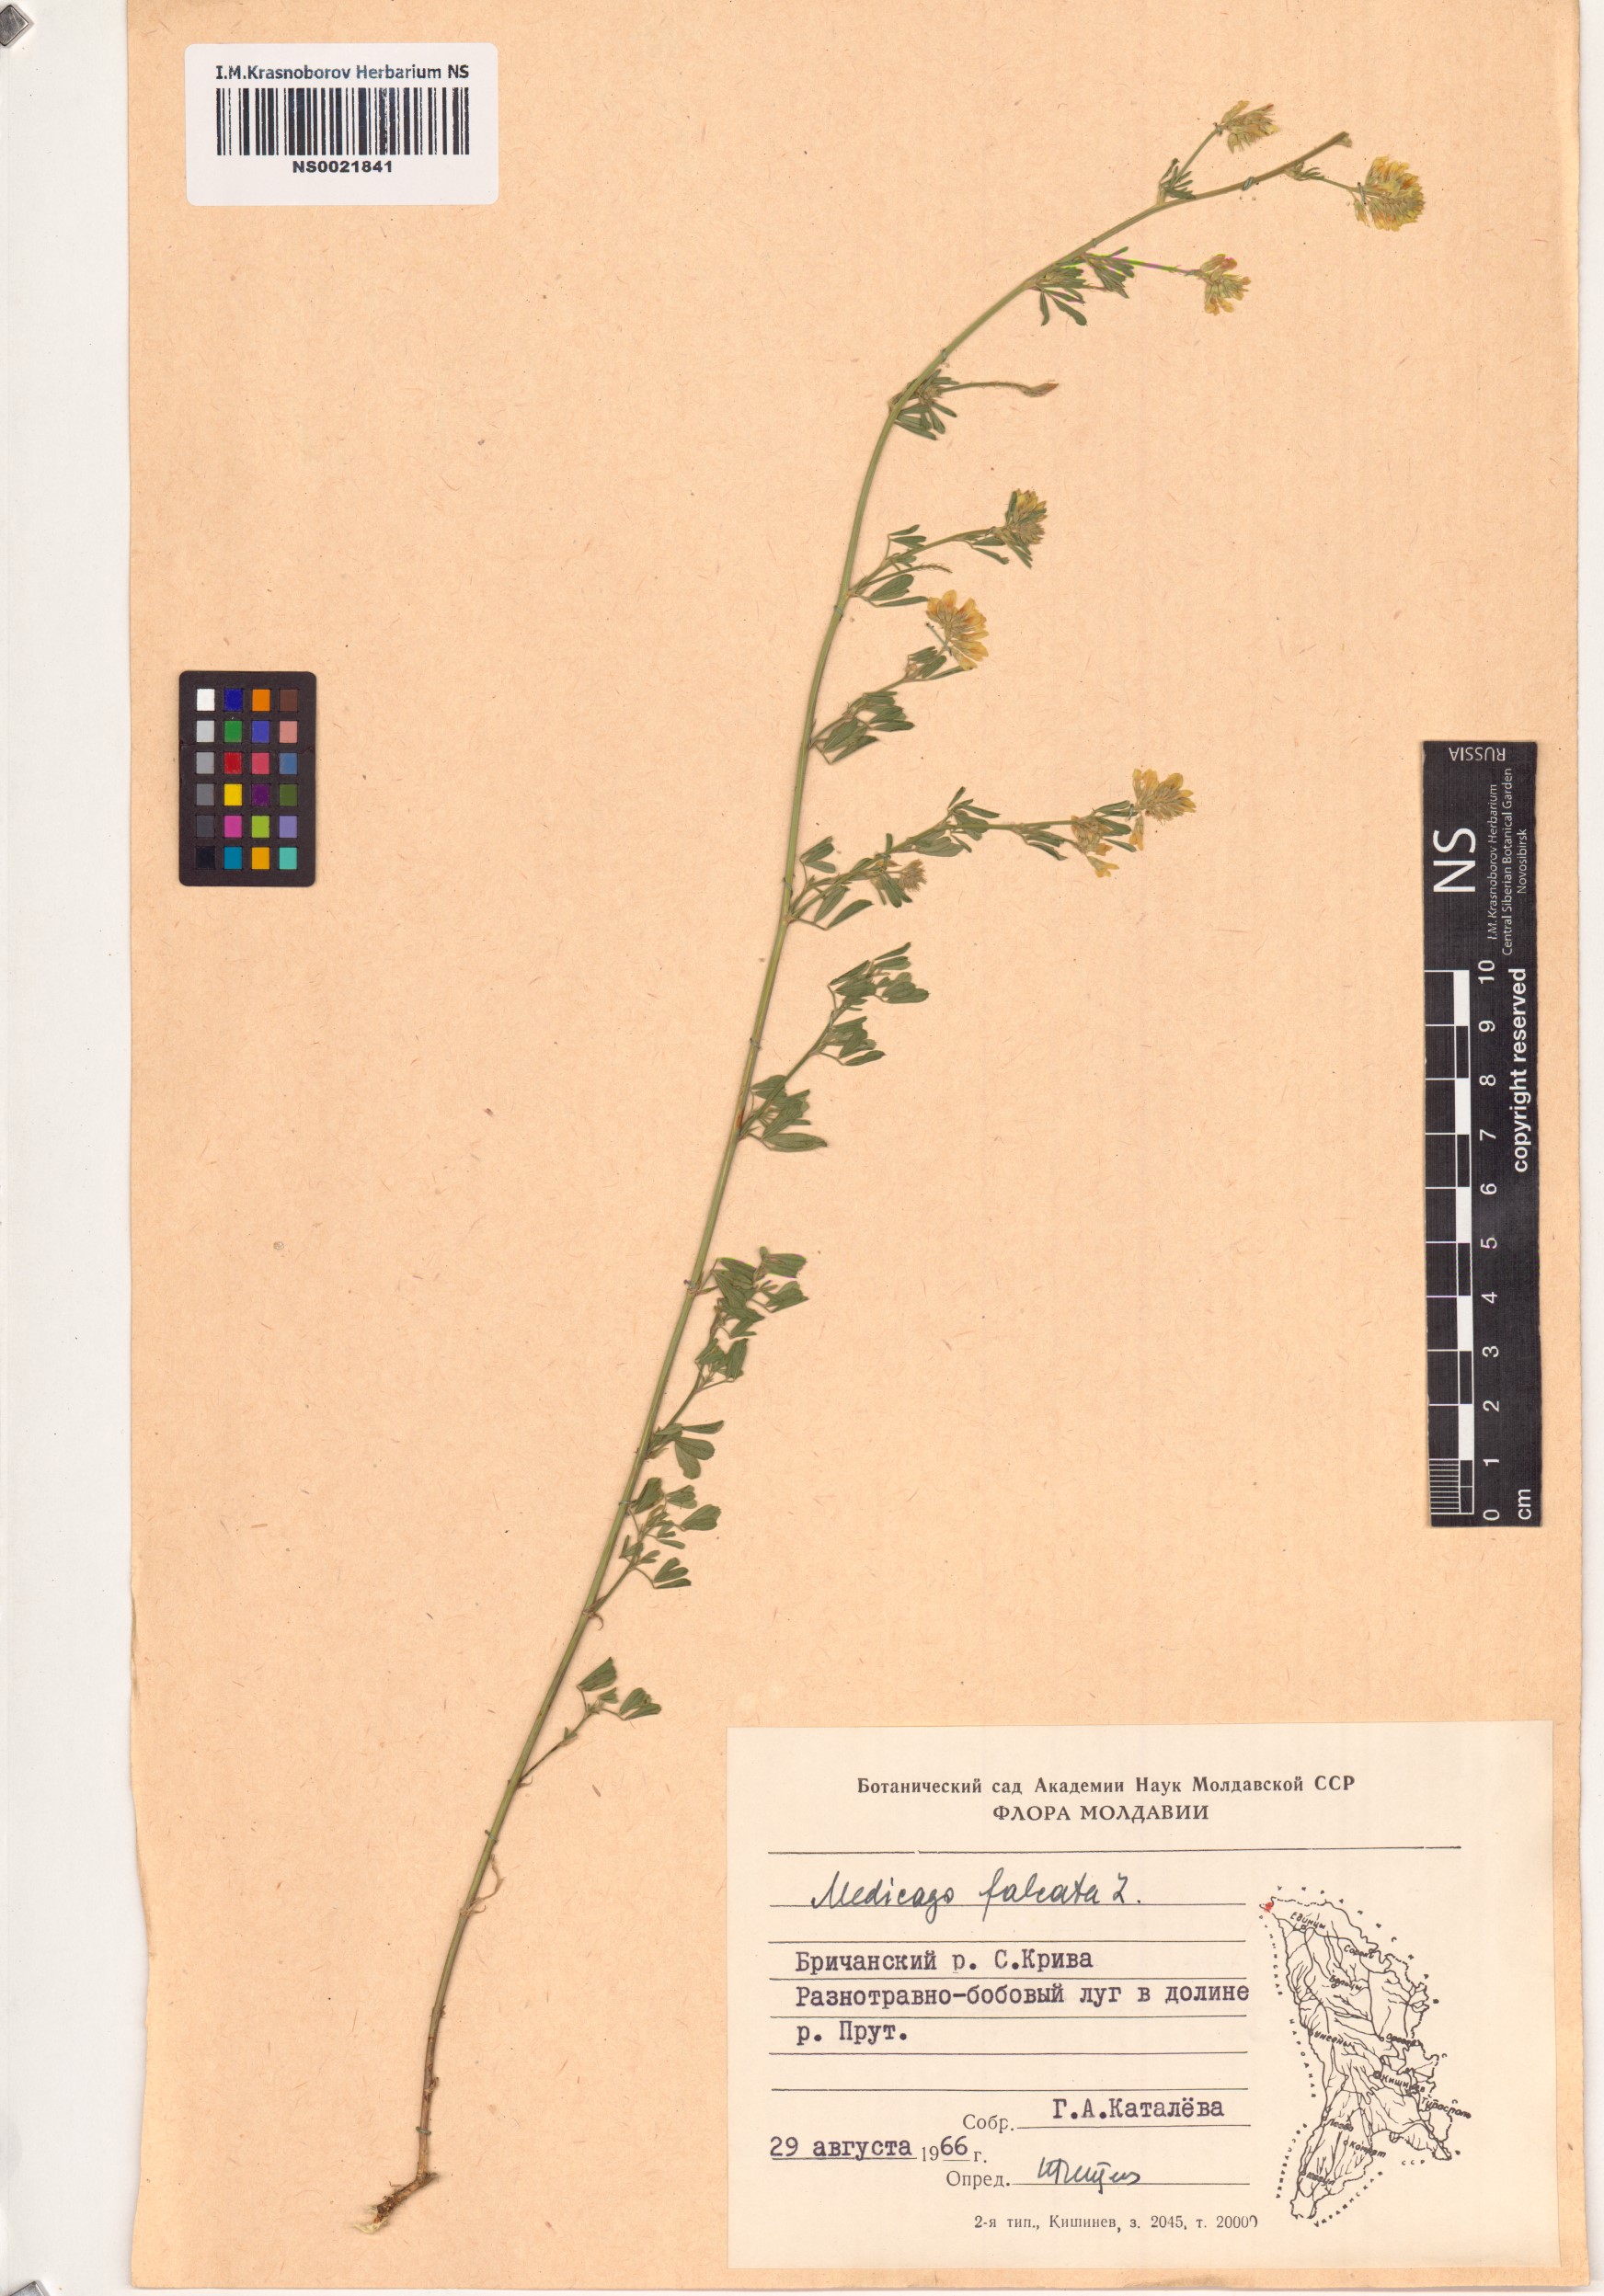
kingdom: Plantae
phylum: Tracheophyta
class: Magnoliopsida
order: Fabales
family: Fabaceae
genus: Medicago
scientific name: Medicago falcata
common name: Sickle medick
